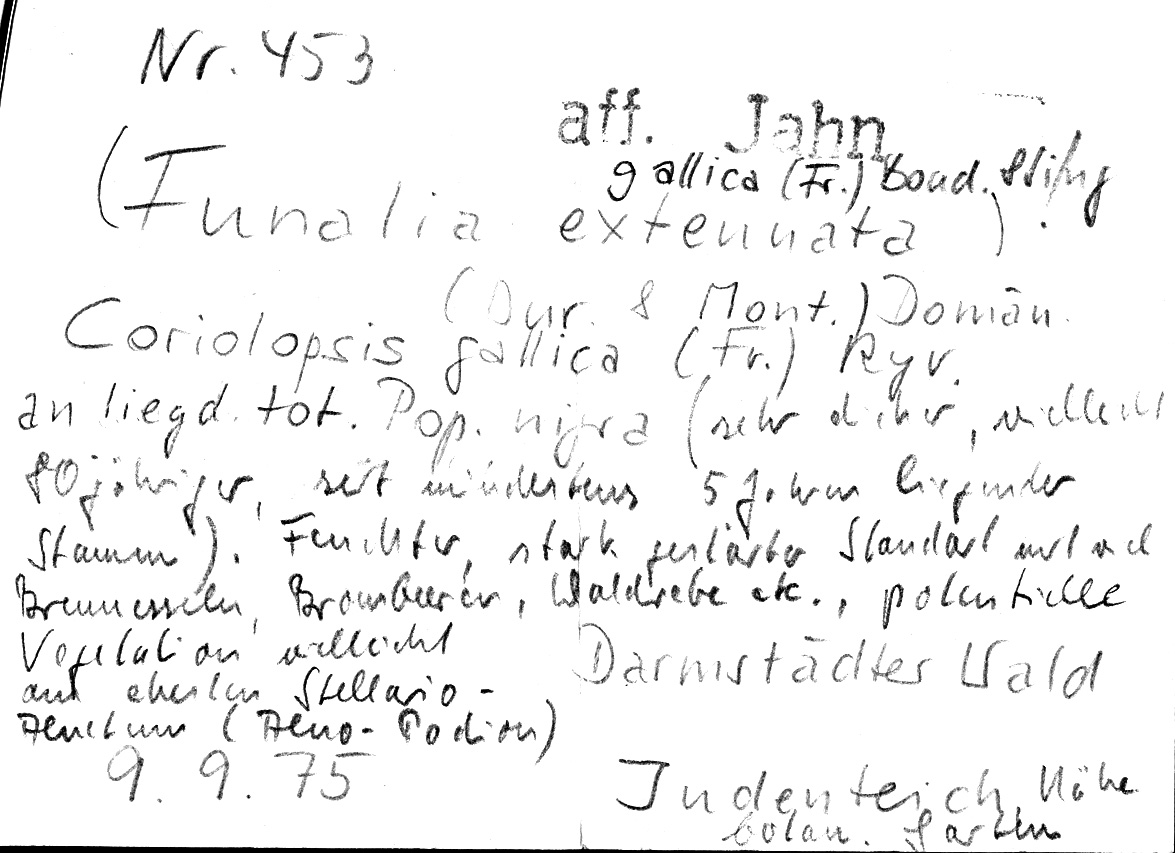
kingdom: Fungi
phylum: Basidiomycota
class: Agaricomycetes
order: Polyporales
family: Polyporaceae
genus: Coriolopsis
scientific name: Coriolopsis gallica
